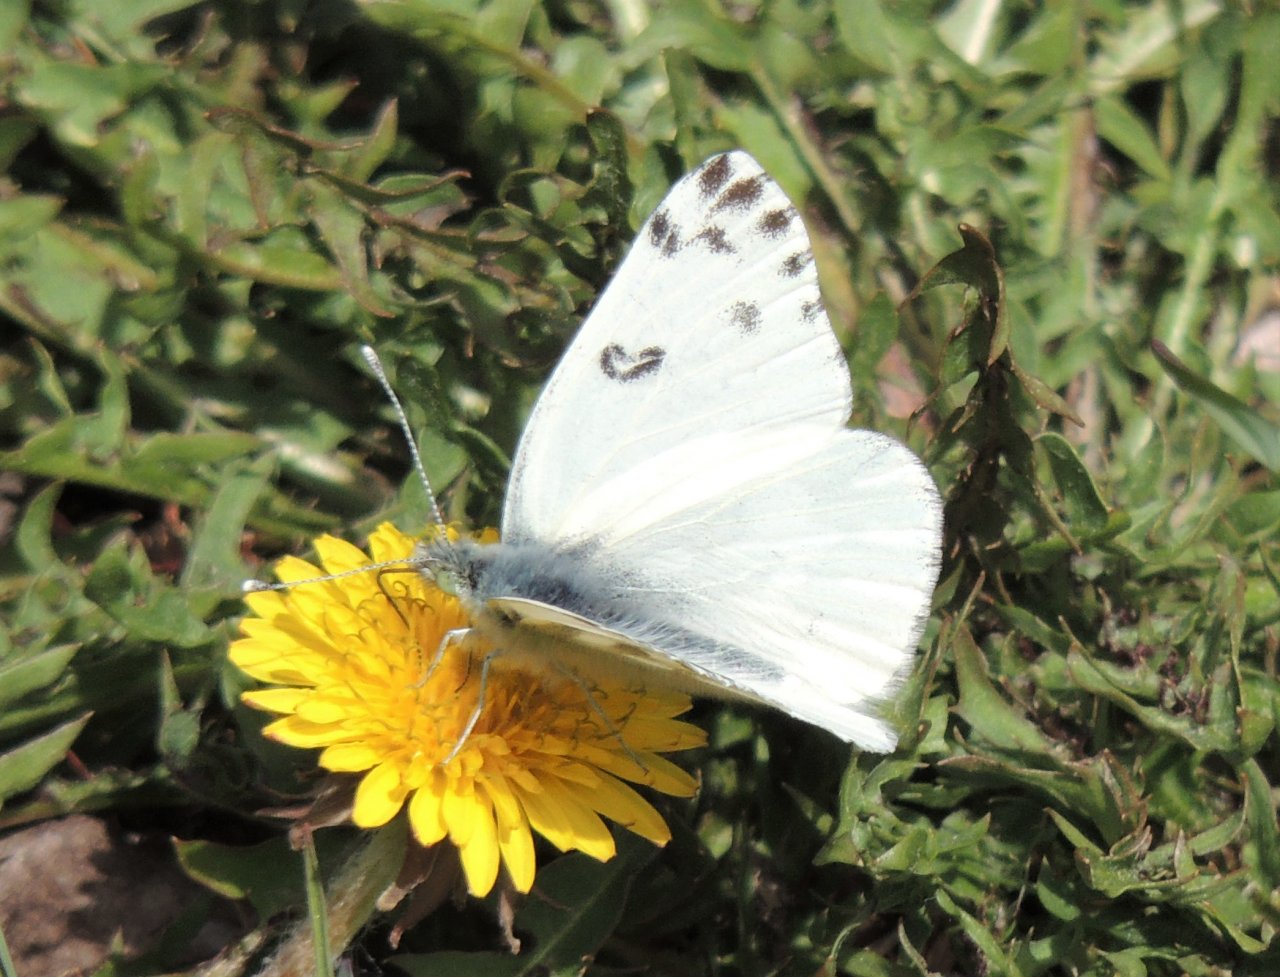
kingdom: Animalia
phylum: Arthropoda
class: Insecta
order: Lepidoptera
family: Pieridae
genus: Pontia
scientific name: Pontia occidentalis
